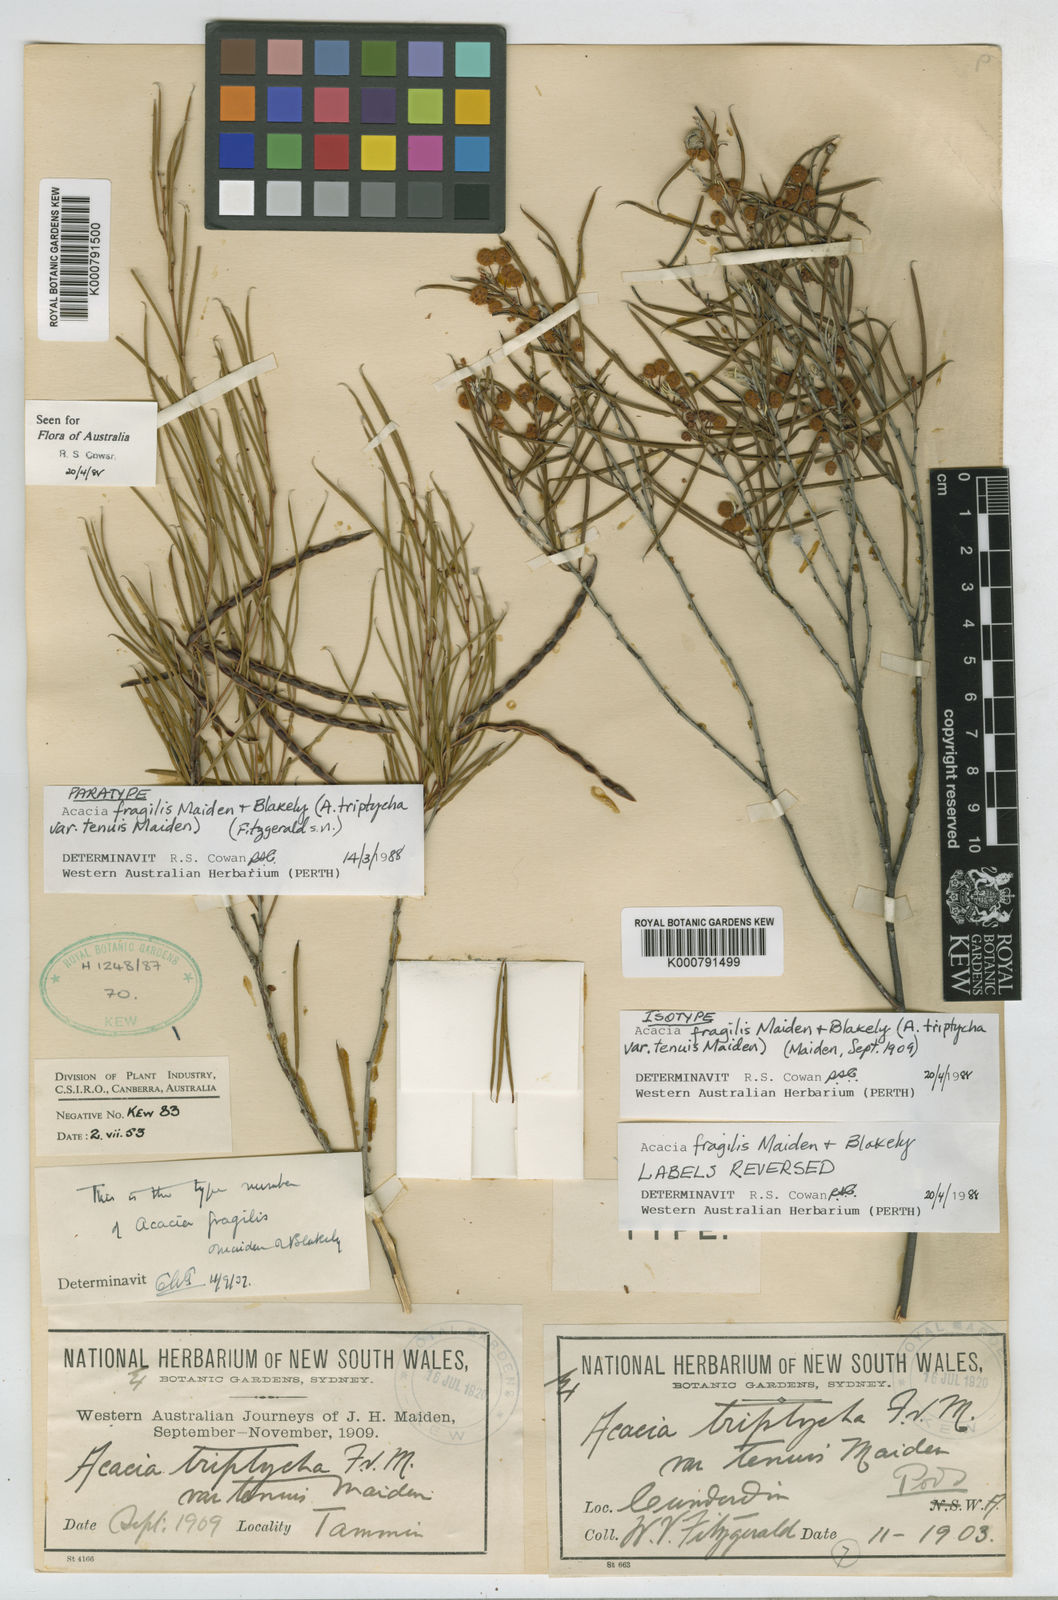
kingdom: Plantae
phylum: Tracheophyta
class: Magnoliopsida
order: Fabales
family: Fabaceae
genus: Acacia
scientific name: Acacia fragilis
